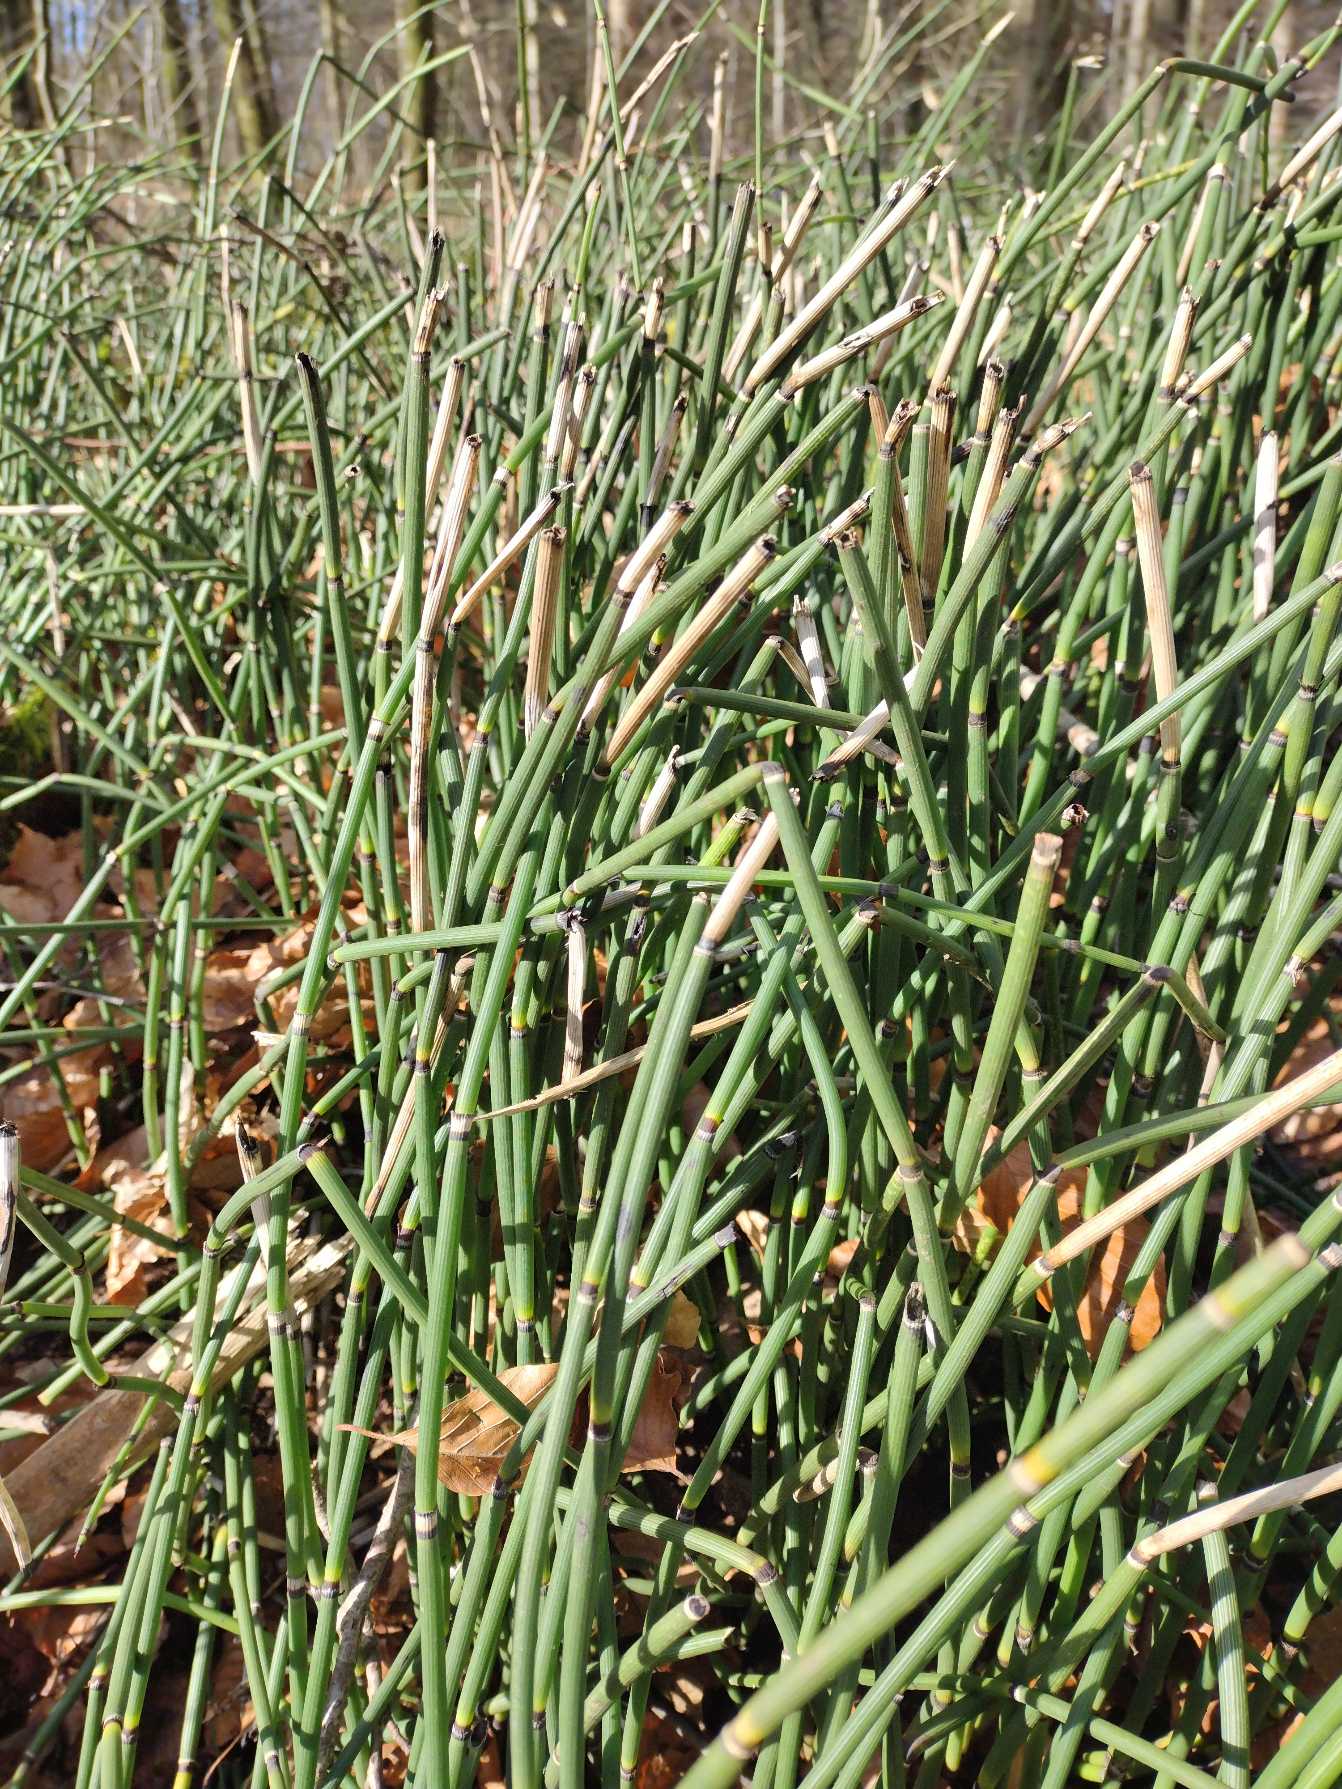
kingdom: Plantae
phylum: Tracheophyta
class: Polypodiopsida
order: Equisetales
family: Equisetaceae
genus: Equisetum
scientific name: Equisetum hyemale
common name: Skavgræs
